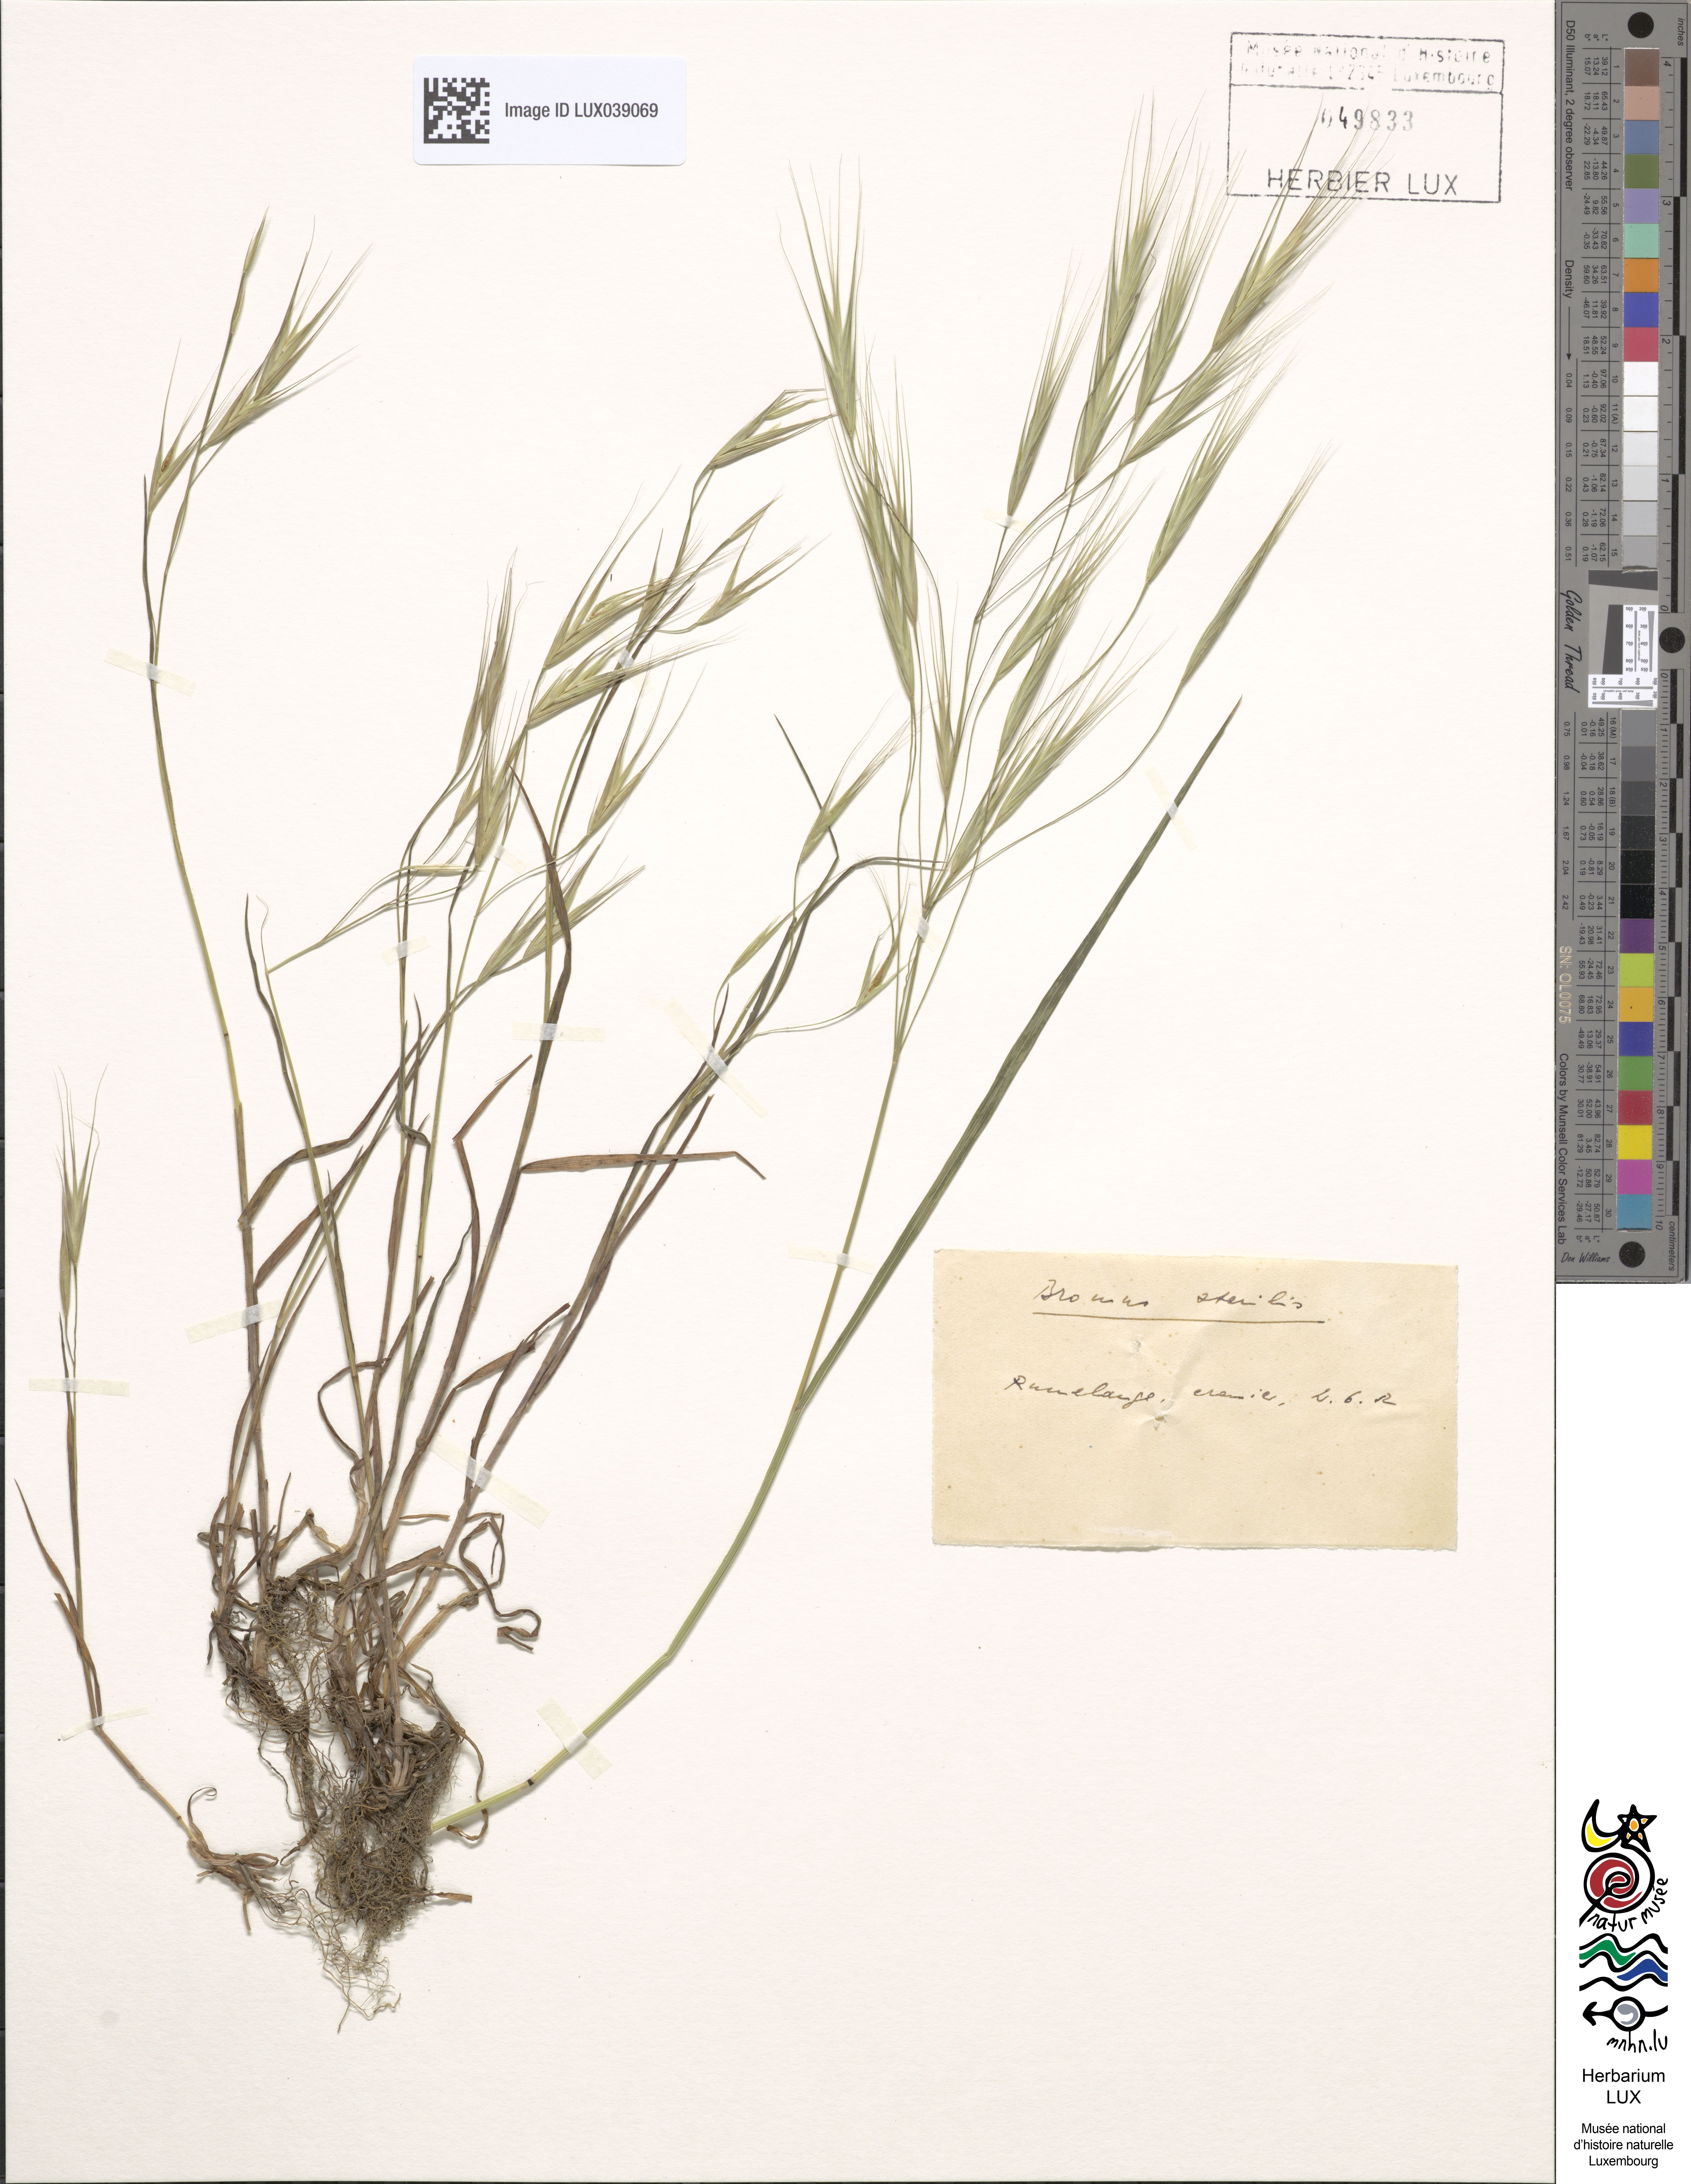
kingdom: Plantae
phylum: Tracheophyta
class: Liliopsida
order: Poales
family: Poaceae
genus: Bromus
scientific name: Bromus sterilis
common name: Poverty brome
